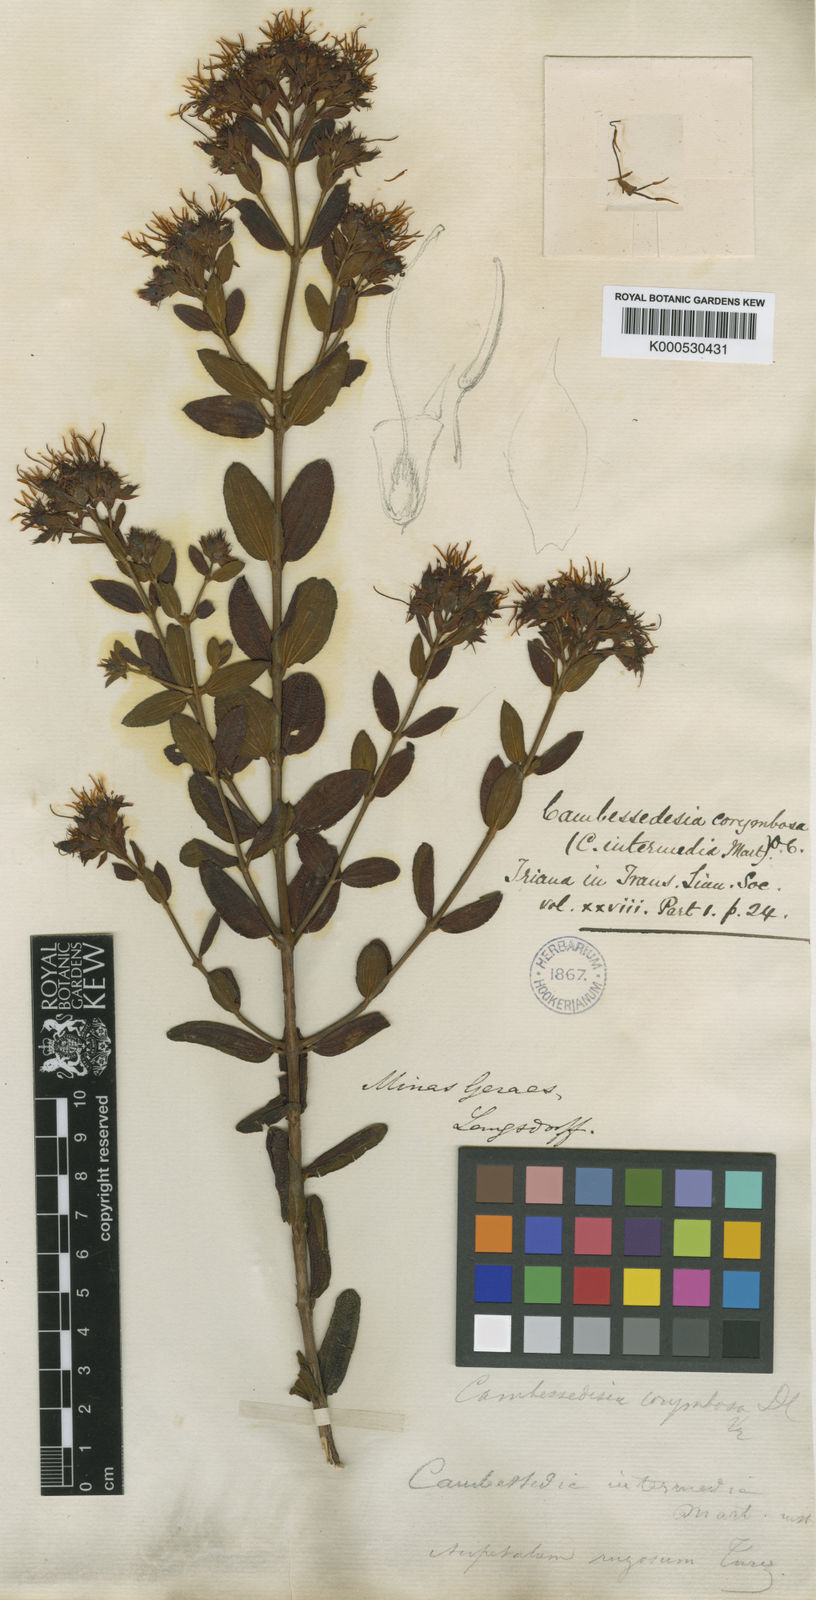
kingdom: Plantae
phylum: Tracheophyta
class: Magnoliopsida
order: Myrtales
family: Melastomataceae
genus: Cambessedesia
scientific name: Cambessedesia corymbosa
